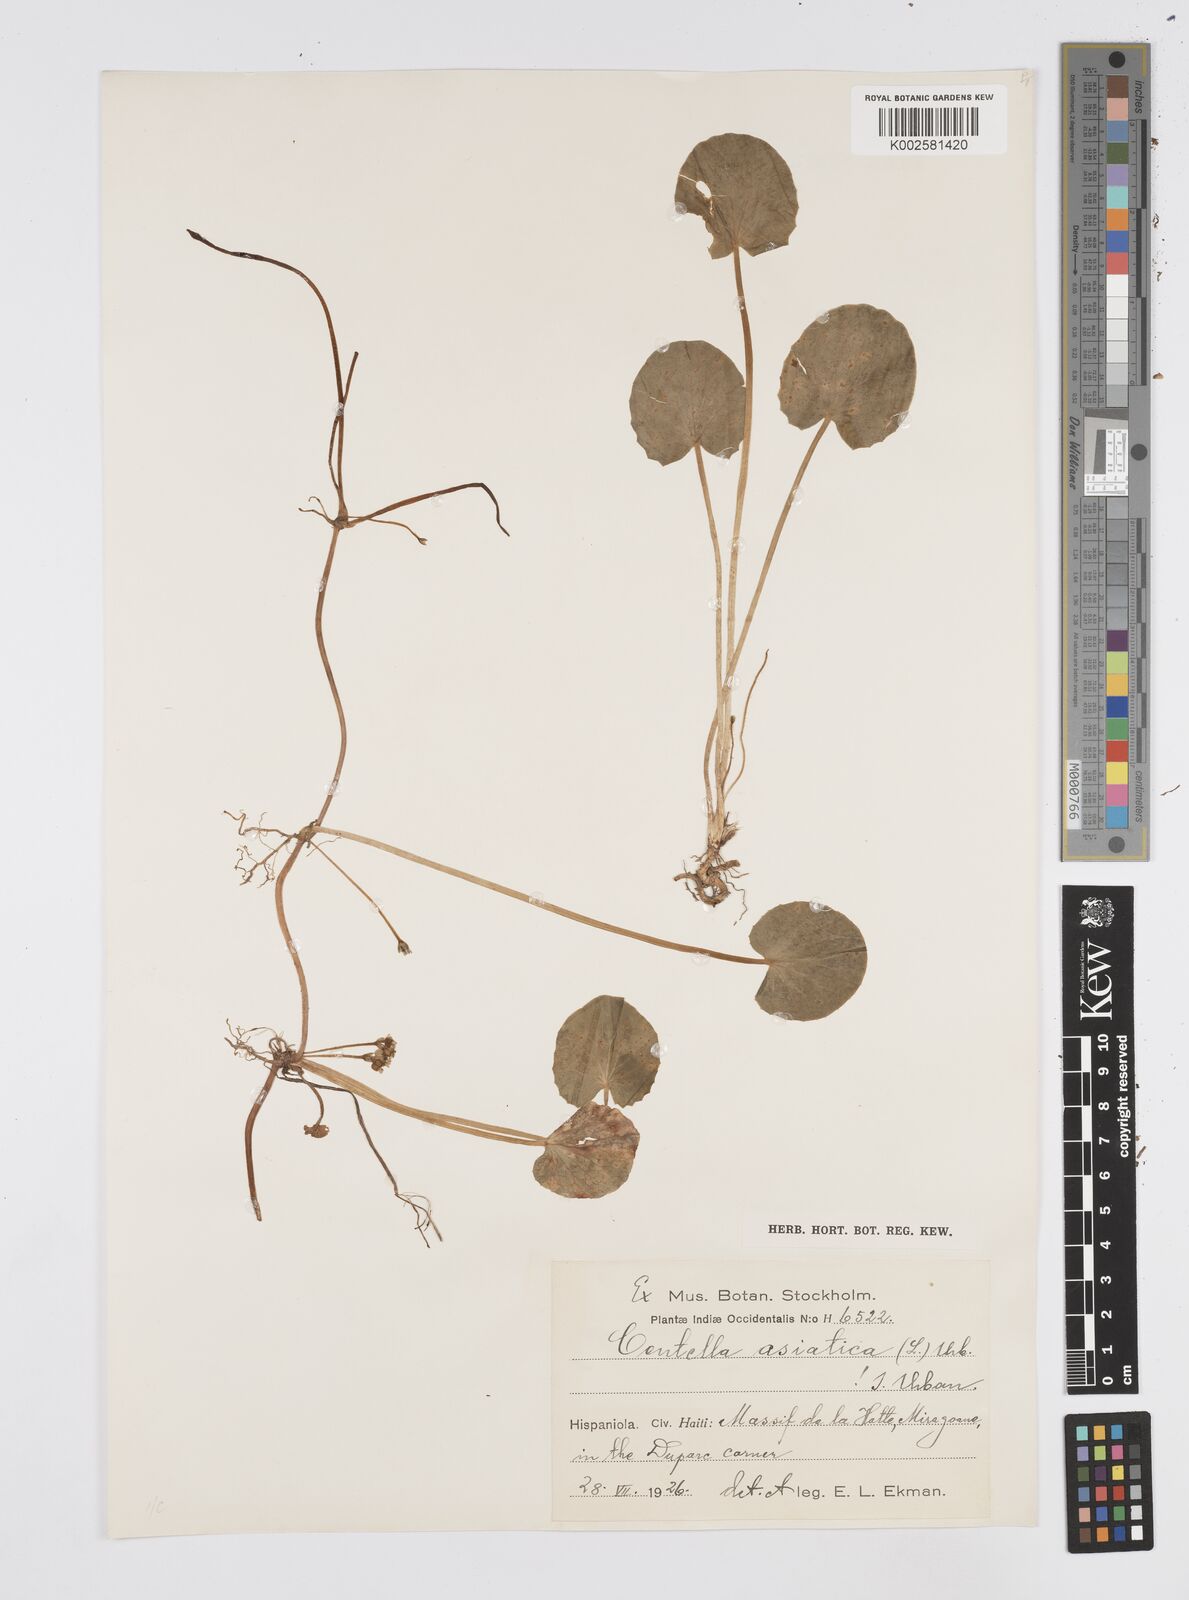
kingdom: Plantae
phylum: Tracheophyta
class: Magnoliopsida
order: Apiales
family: Apiaceae
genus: Centella
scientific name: Centella asiatica
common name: Spadeleaf
